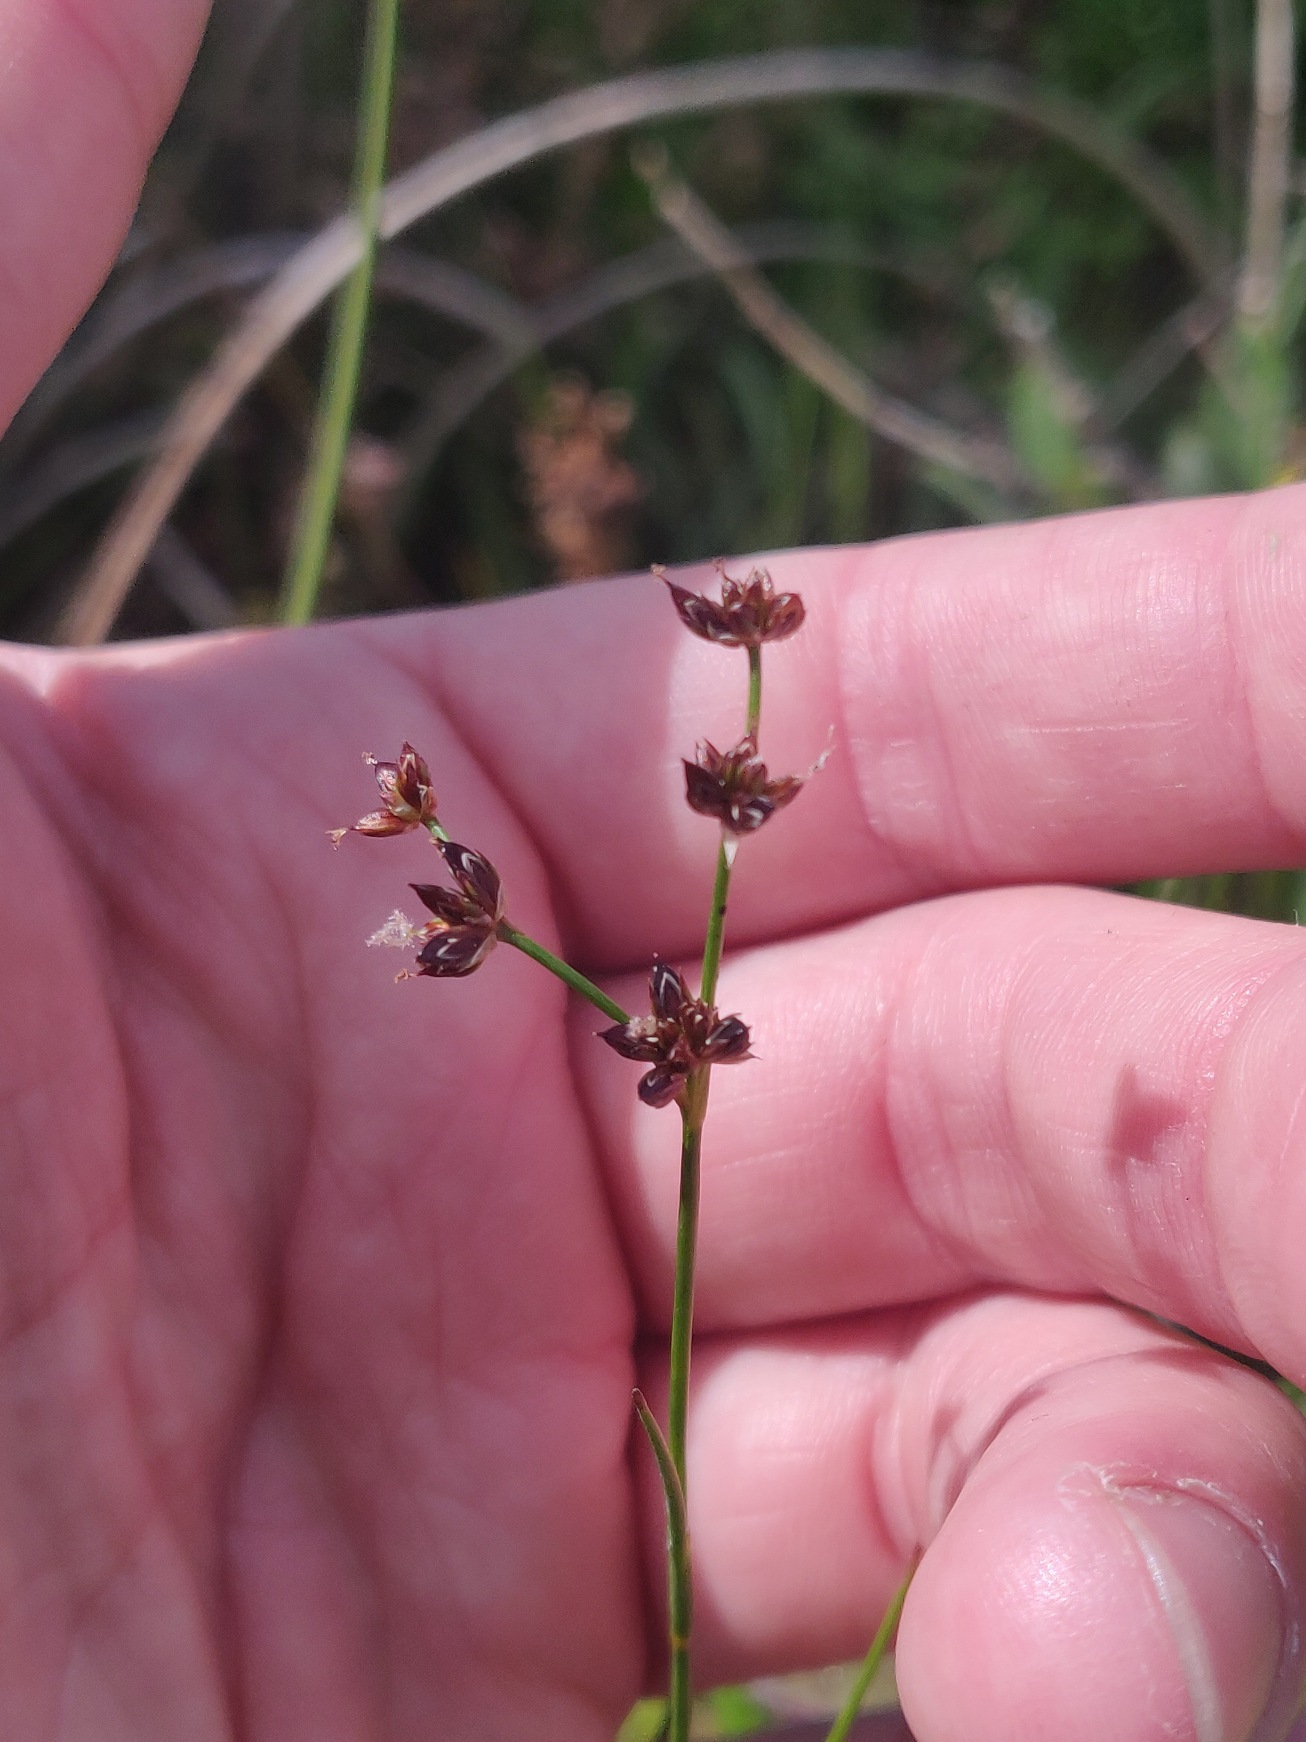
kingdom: Plantae
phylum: Tracheophyta
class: Liliopsida
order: Poales
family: Juncaceae
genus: Juncus
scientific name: Juncus articulatus
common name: Glanskapslet siv
